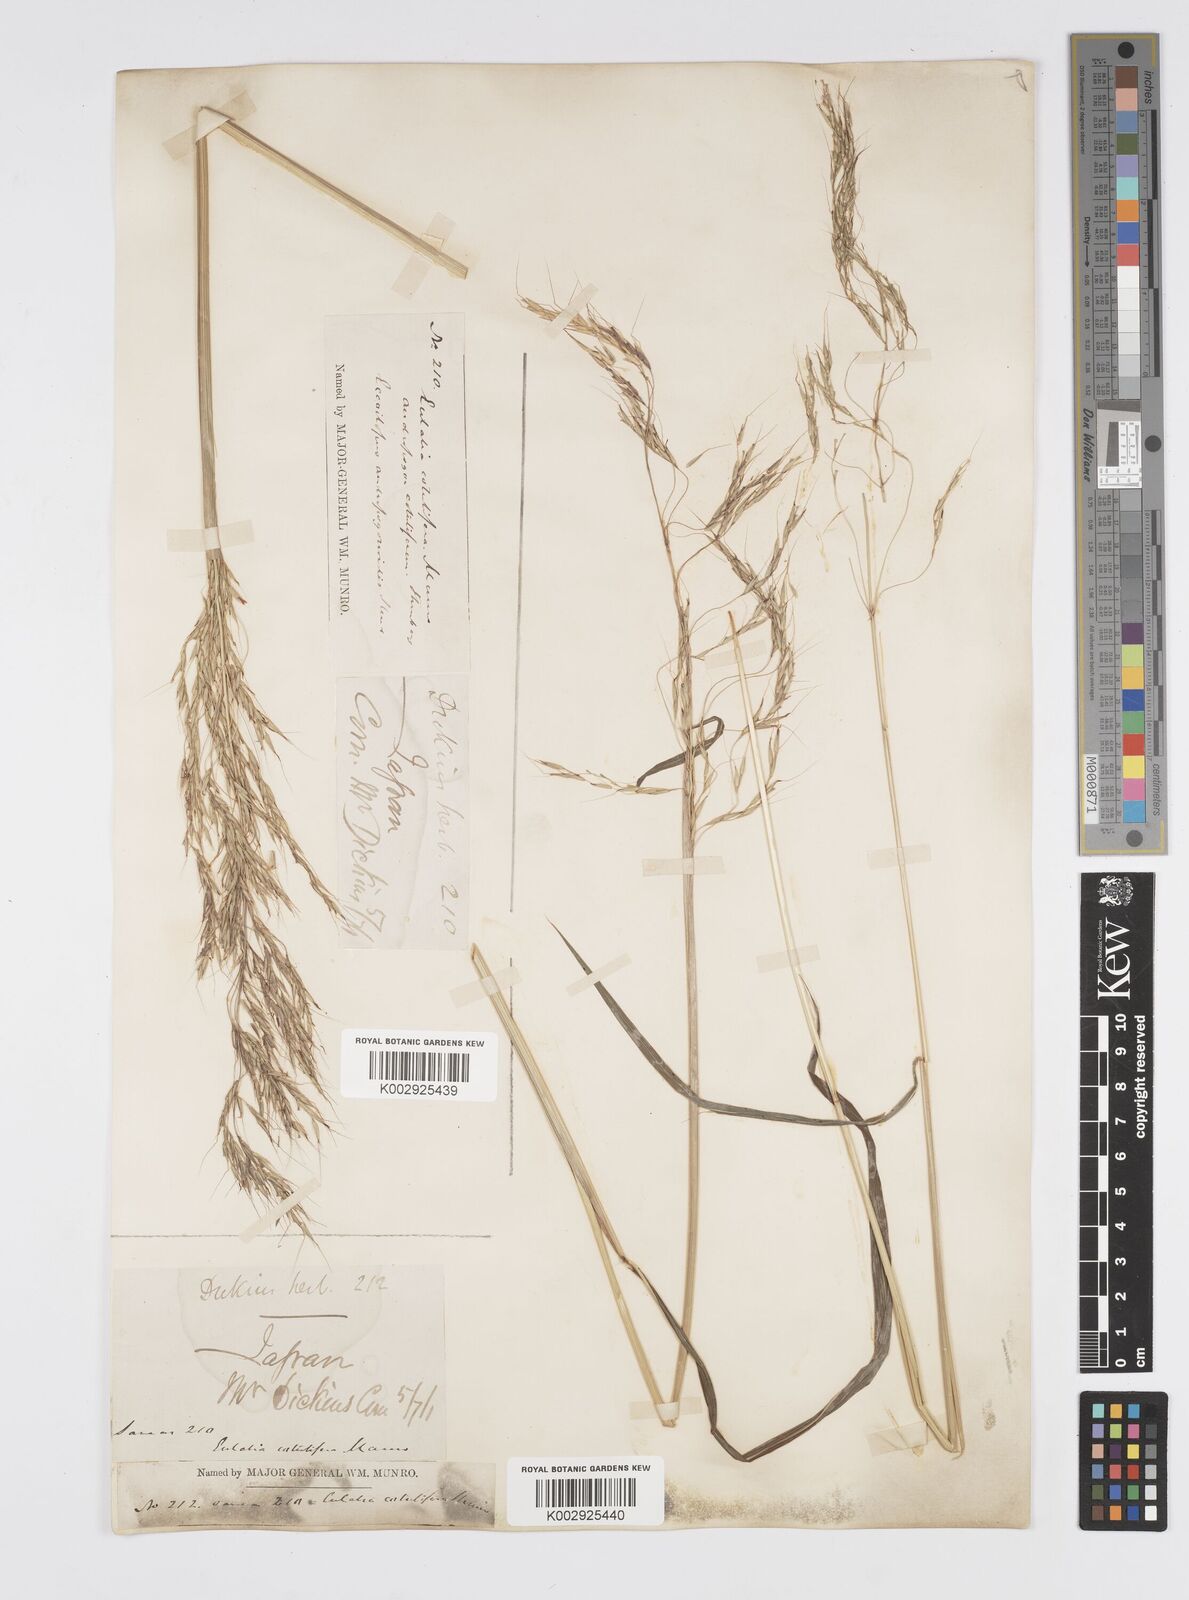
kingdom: Plantae
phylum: Tracheophyta
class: Liliopsida
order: Poales
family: Poaceae
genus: Spodiopogon
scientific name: Spodiopogon cotulifer
